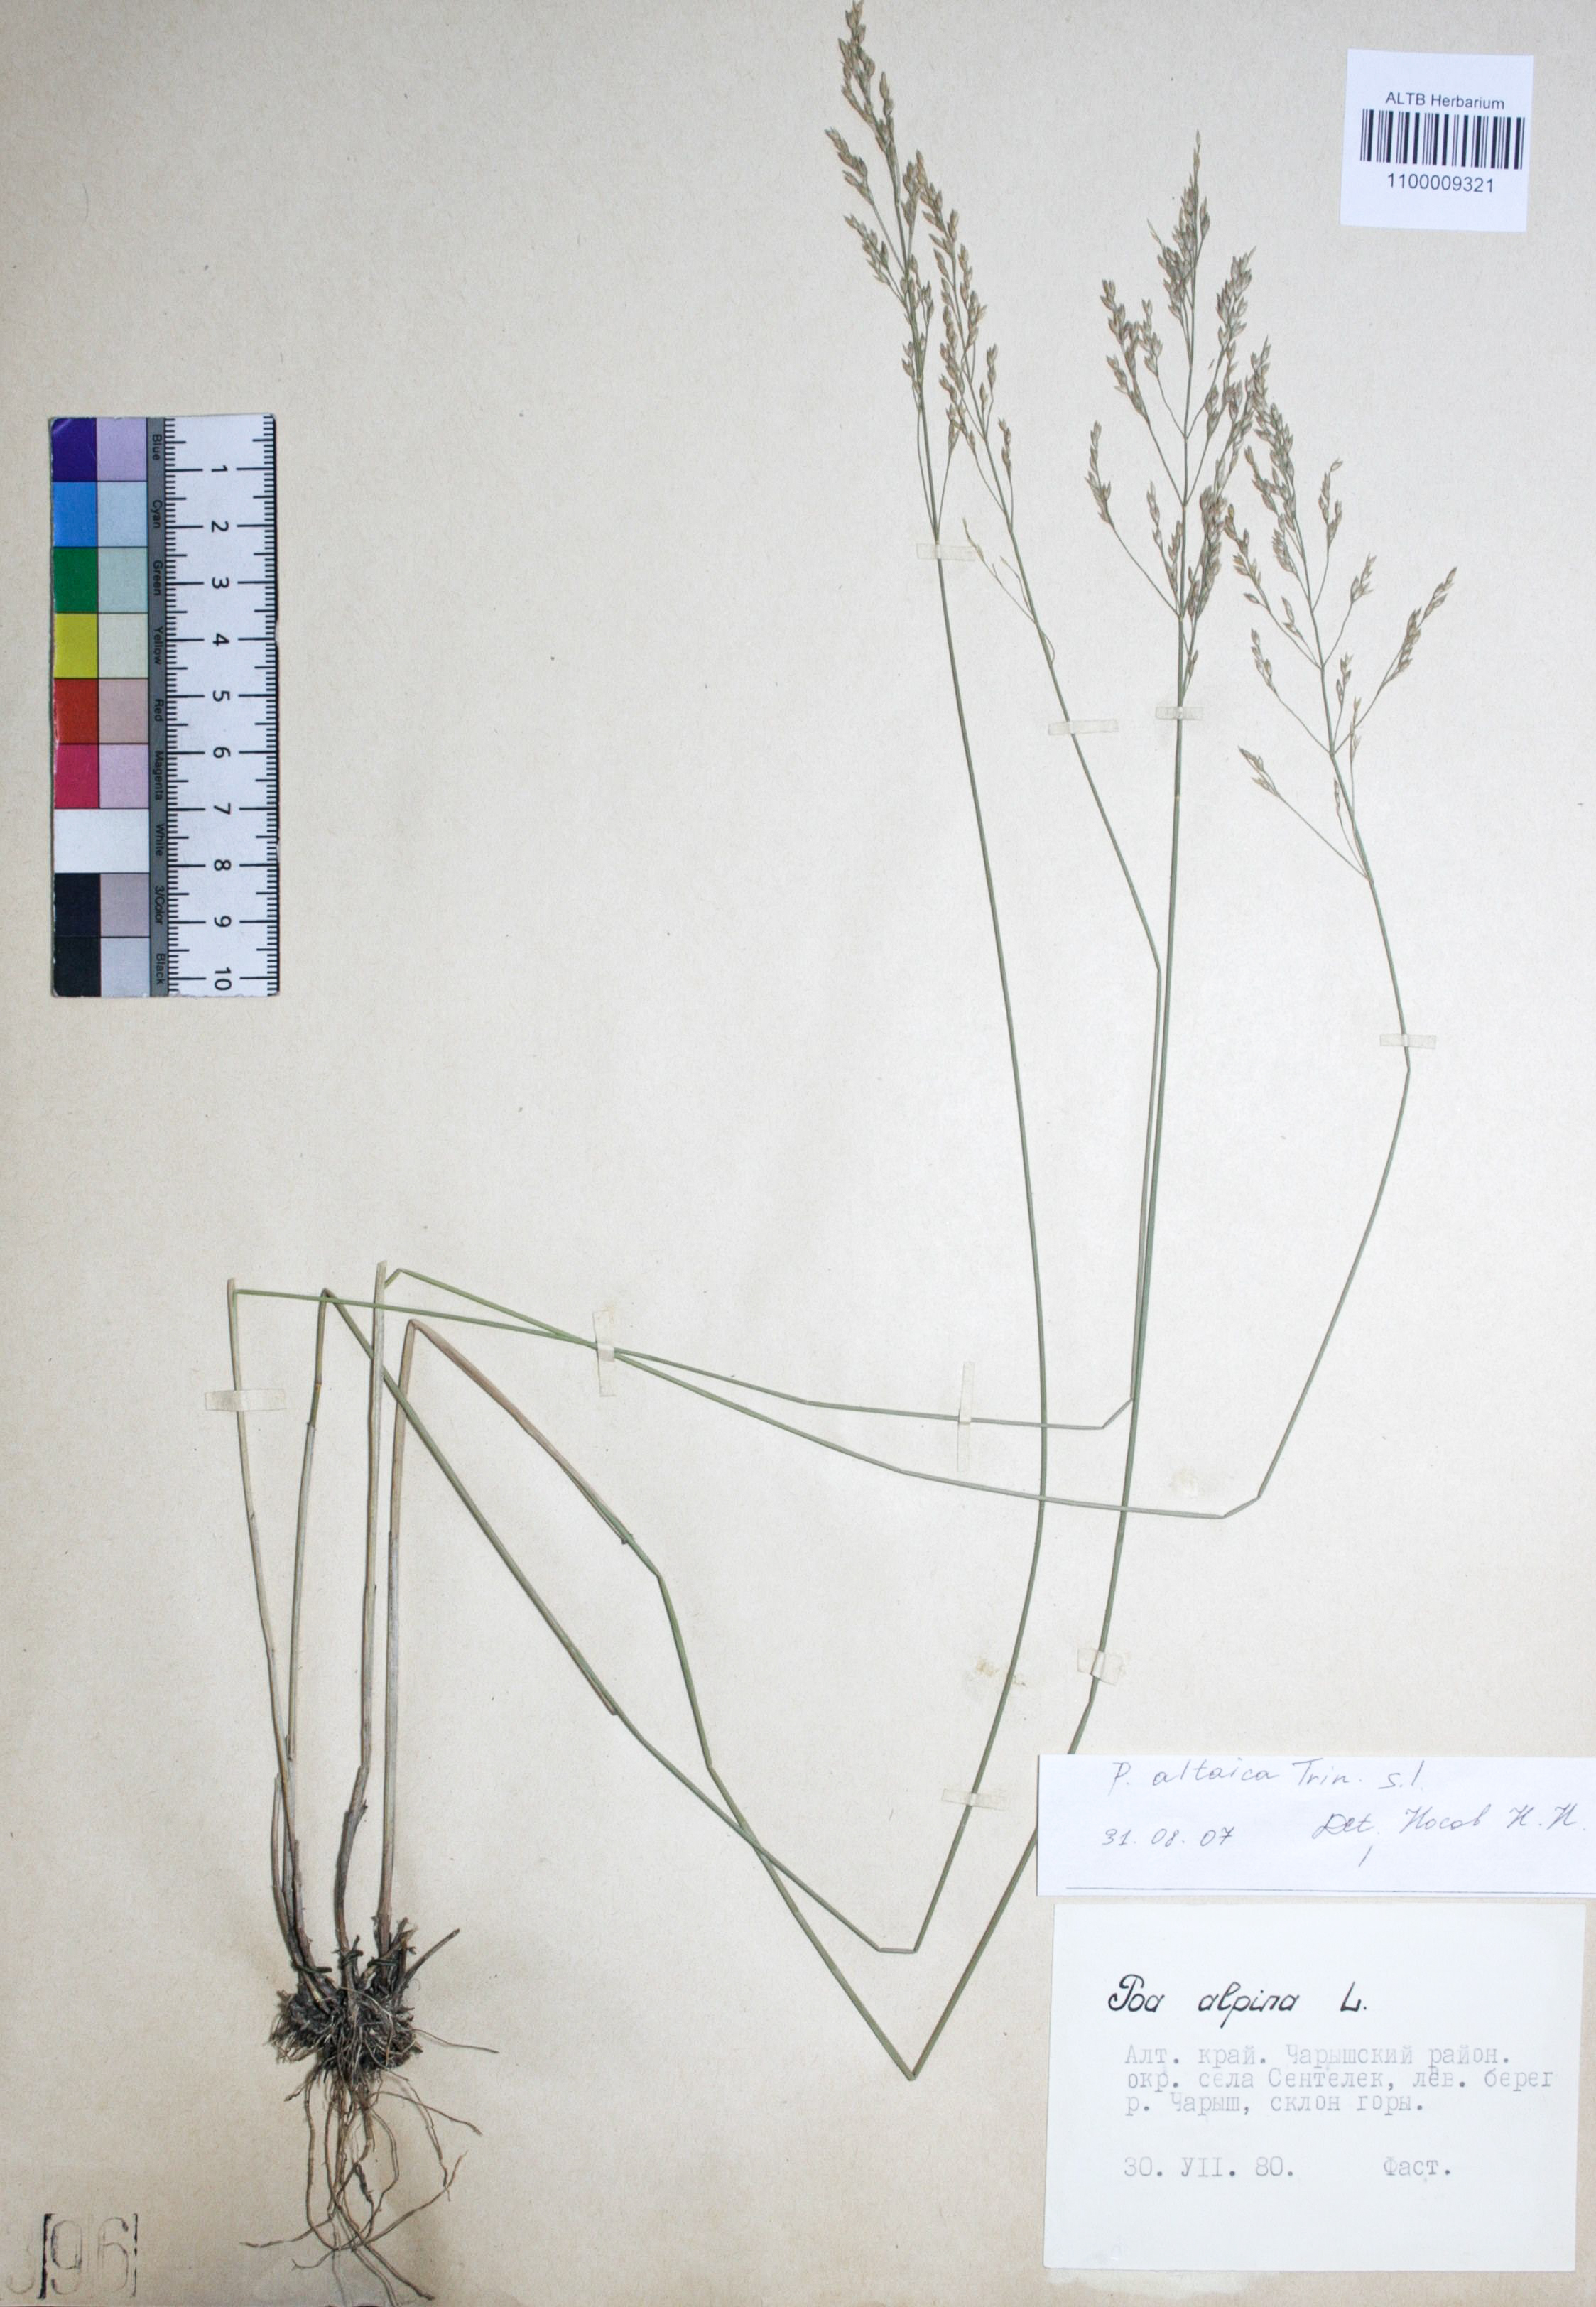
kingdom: Plantae
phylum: Tracheophyta
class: Liliopsida
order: Poales
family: Poaceae
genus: Poa
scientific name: Poa alpina
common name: Alpine bluegrass
